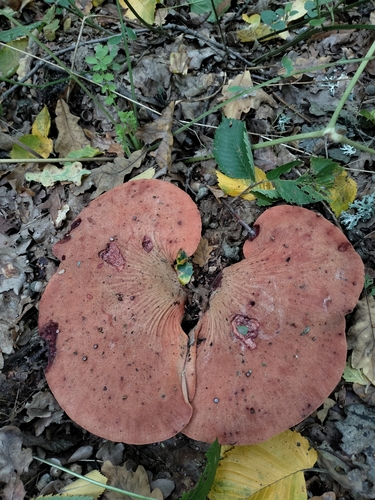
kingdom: Fungi
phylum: Basidiomycota
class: Agaricomycetes
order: Agaricales
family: Fistulinaceae
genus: Fistulina
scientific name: Fistulina hepatica
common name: Beef-steak fungus
